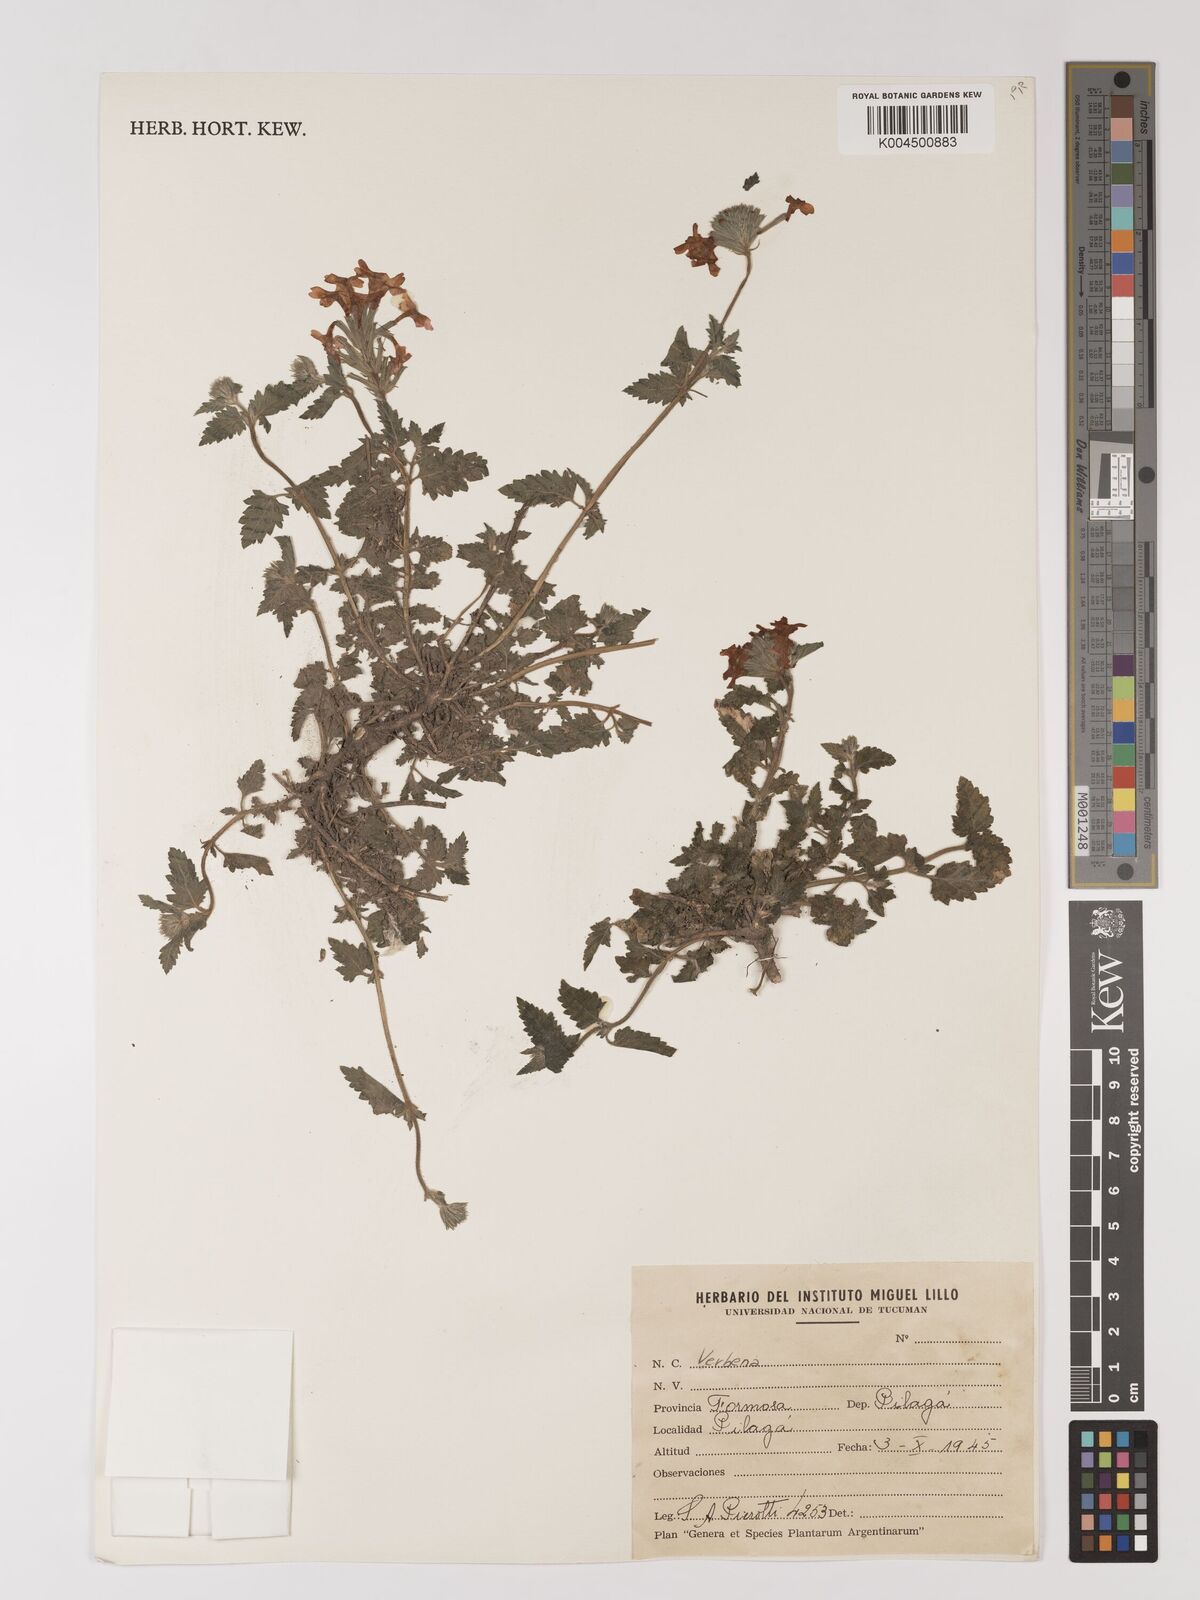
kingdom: Plantae
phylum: Tracheophyta
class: Magnoliopsida
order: Lamiales
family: Verbenaceae
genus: Verbena
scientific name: Verbena
